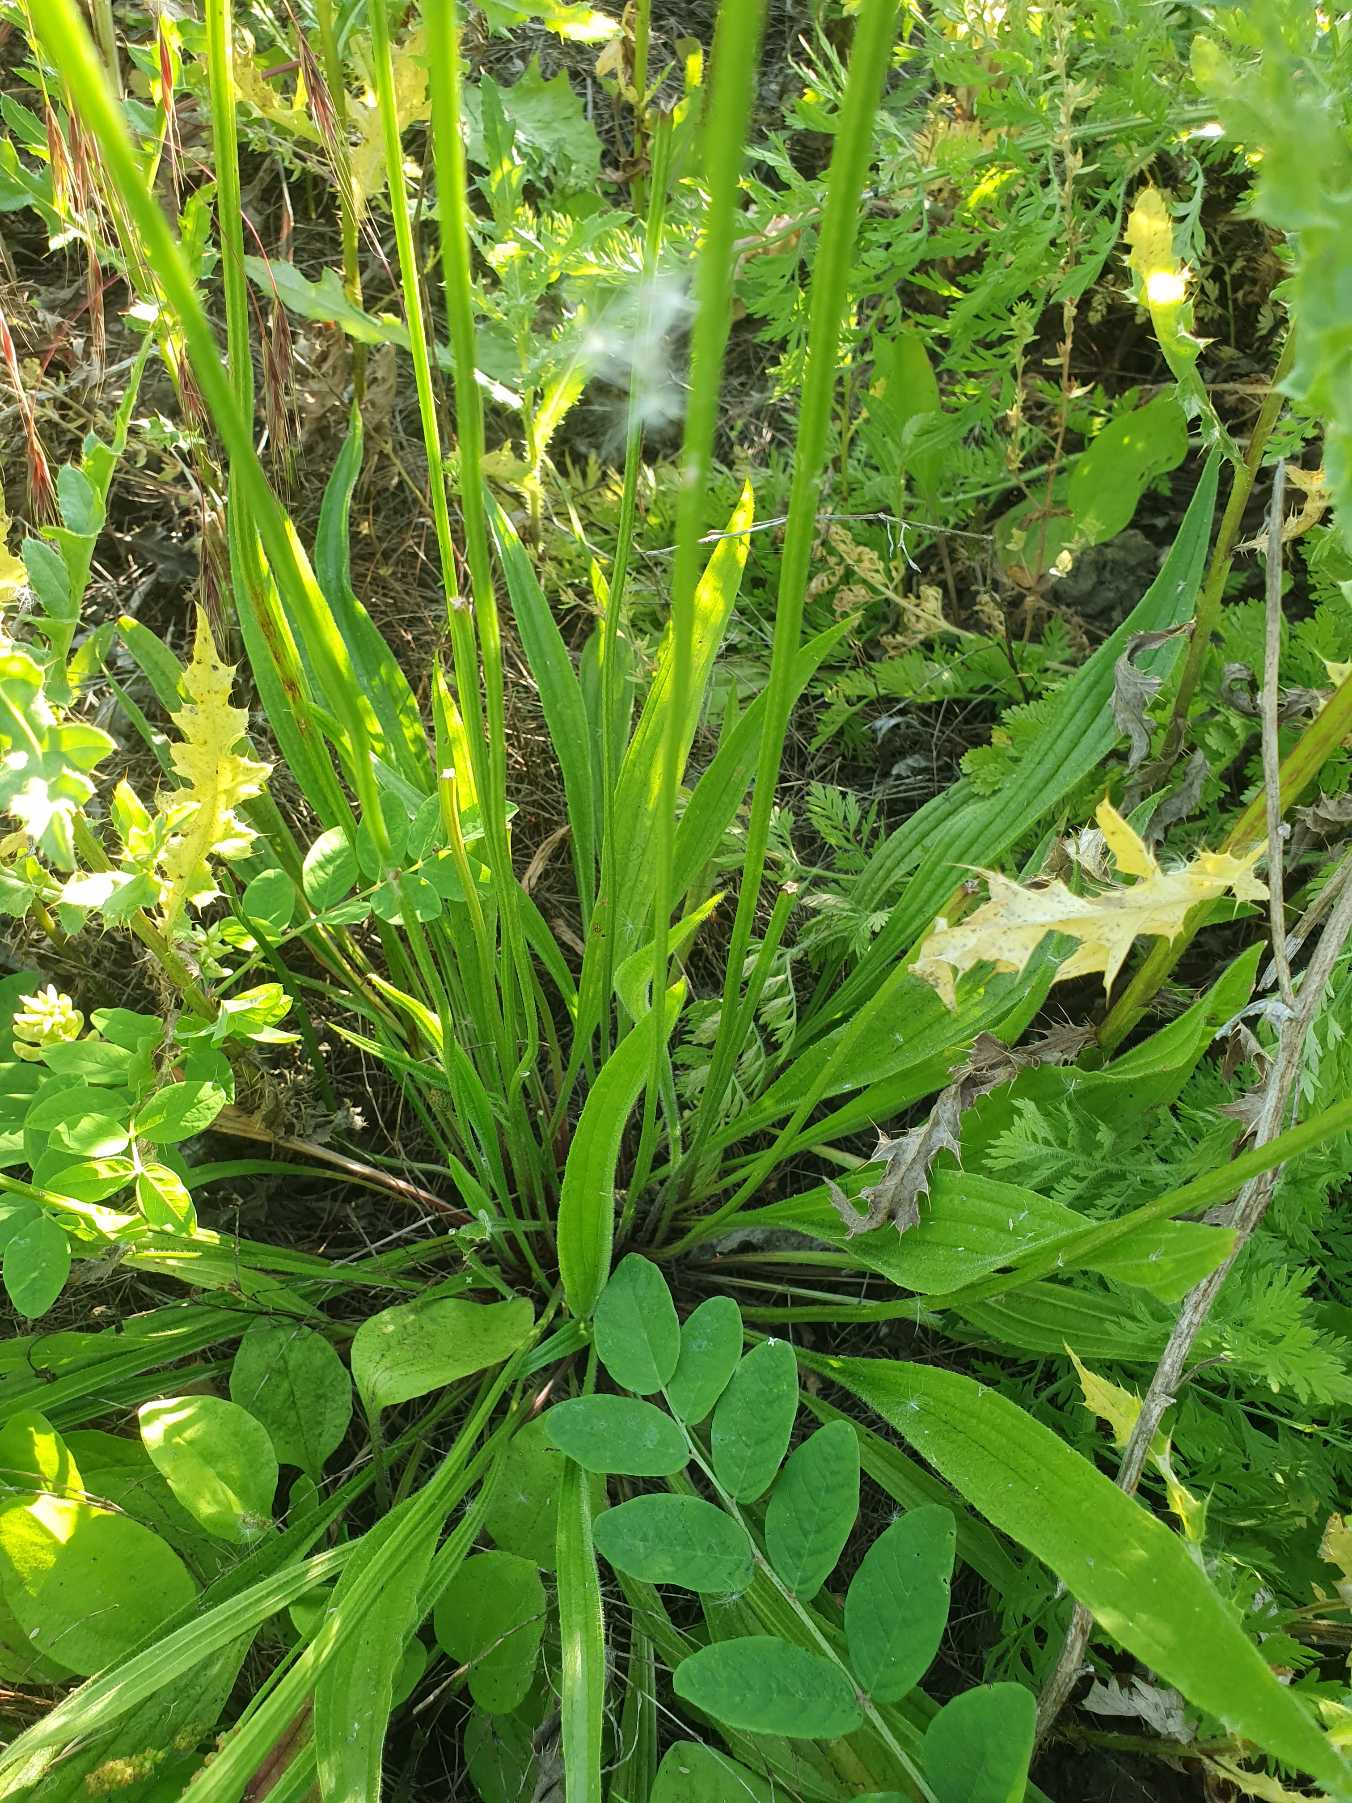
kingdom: Plantae
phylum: Tracheophyta
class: Magnoliopsida
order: Lamiales
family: Plantaginaceae
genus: Plantago
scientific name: Plantago lanceolata
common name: Lancet-vejbred
